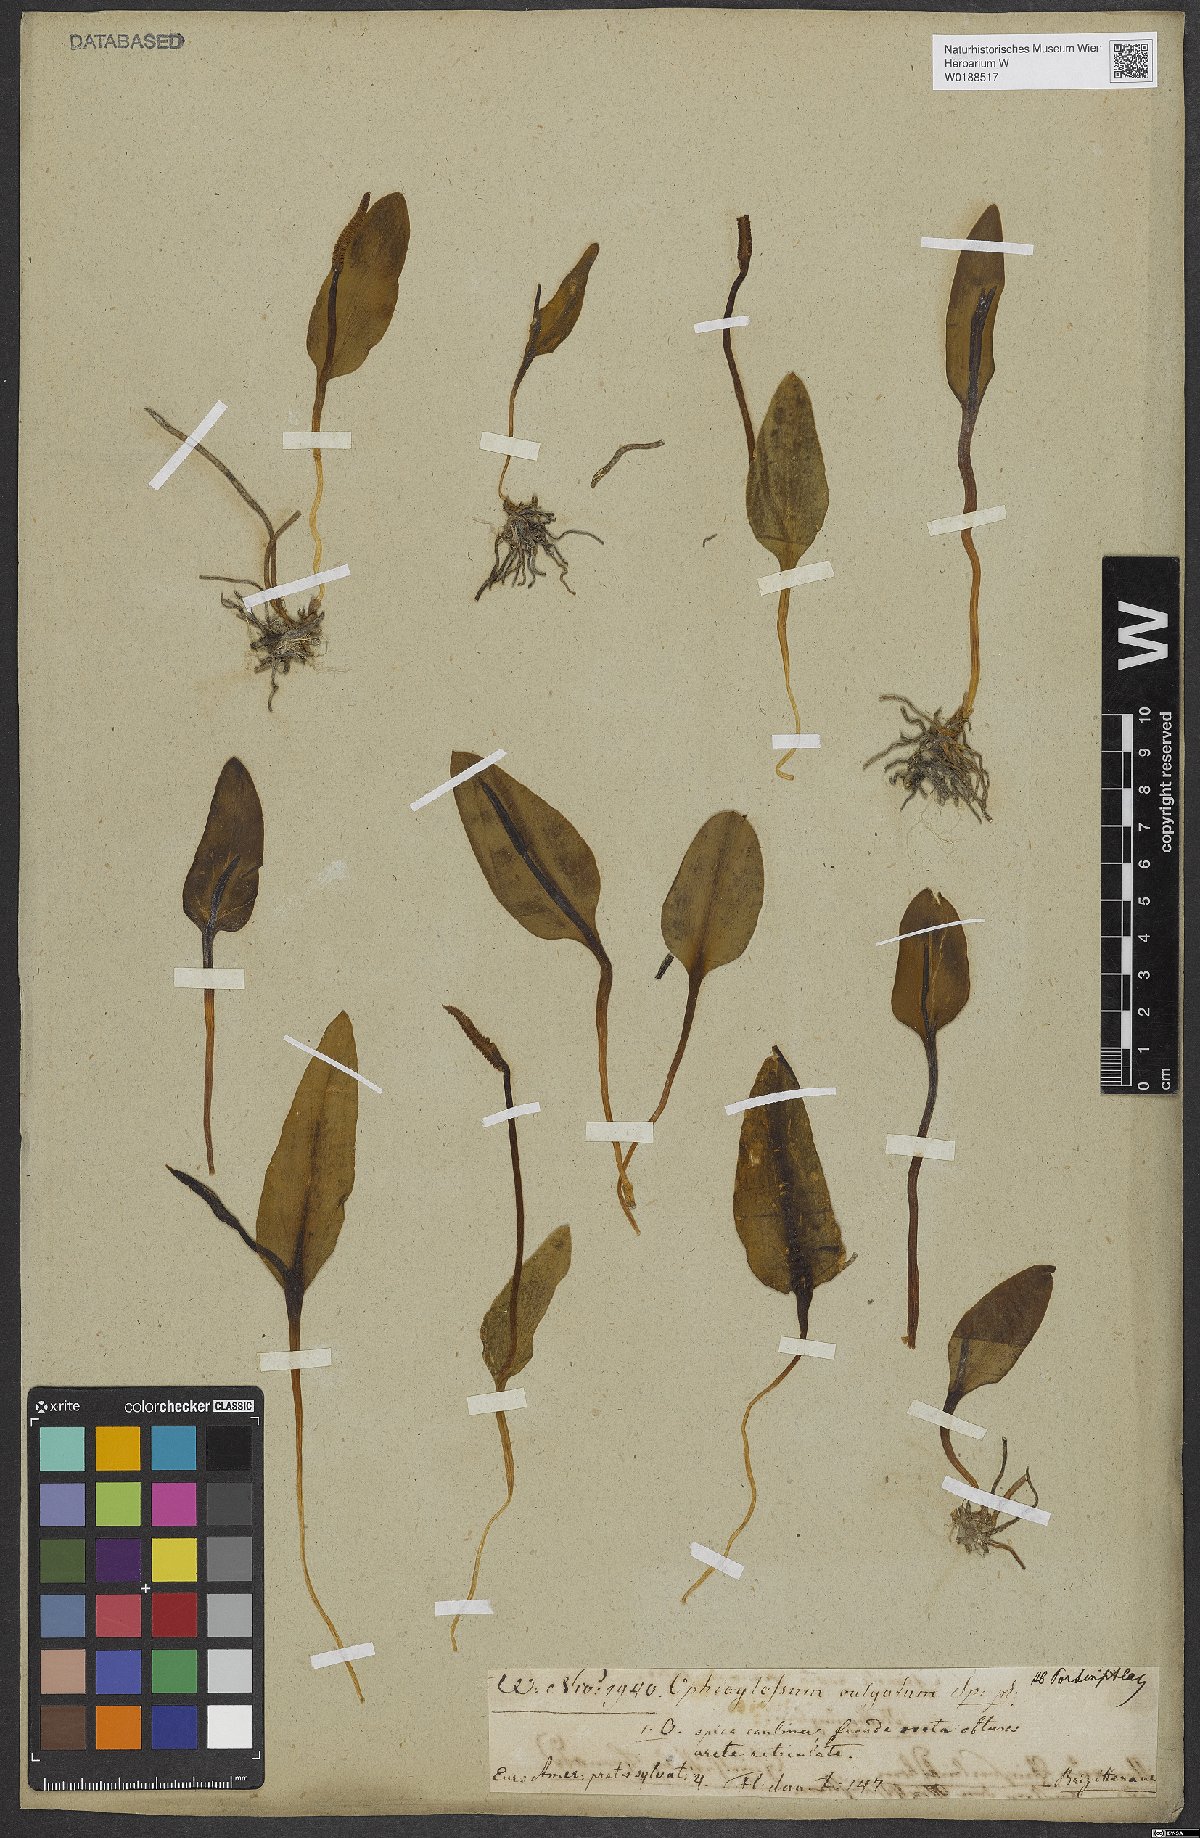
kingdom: Plantae
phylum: Tracheophyta
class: Polypodiopsida
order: Ophioglossales
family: Ophioglossaceae
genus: Ophioglossum
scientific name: Ophioglossum vulgatum
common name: Adder's-tongue
